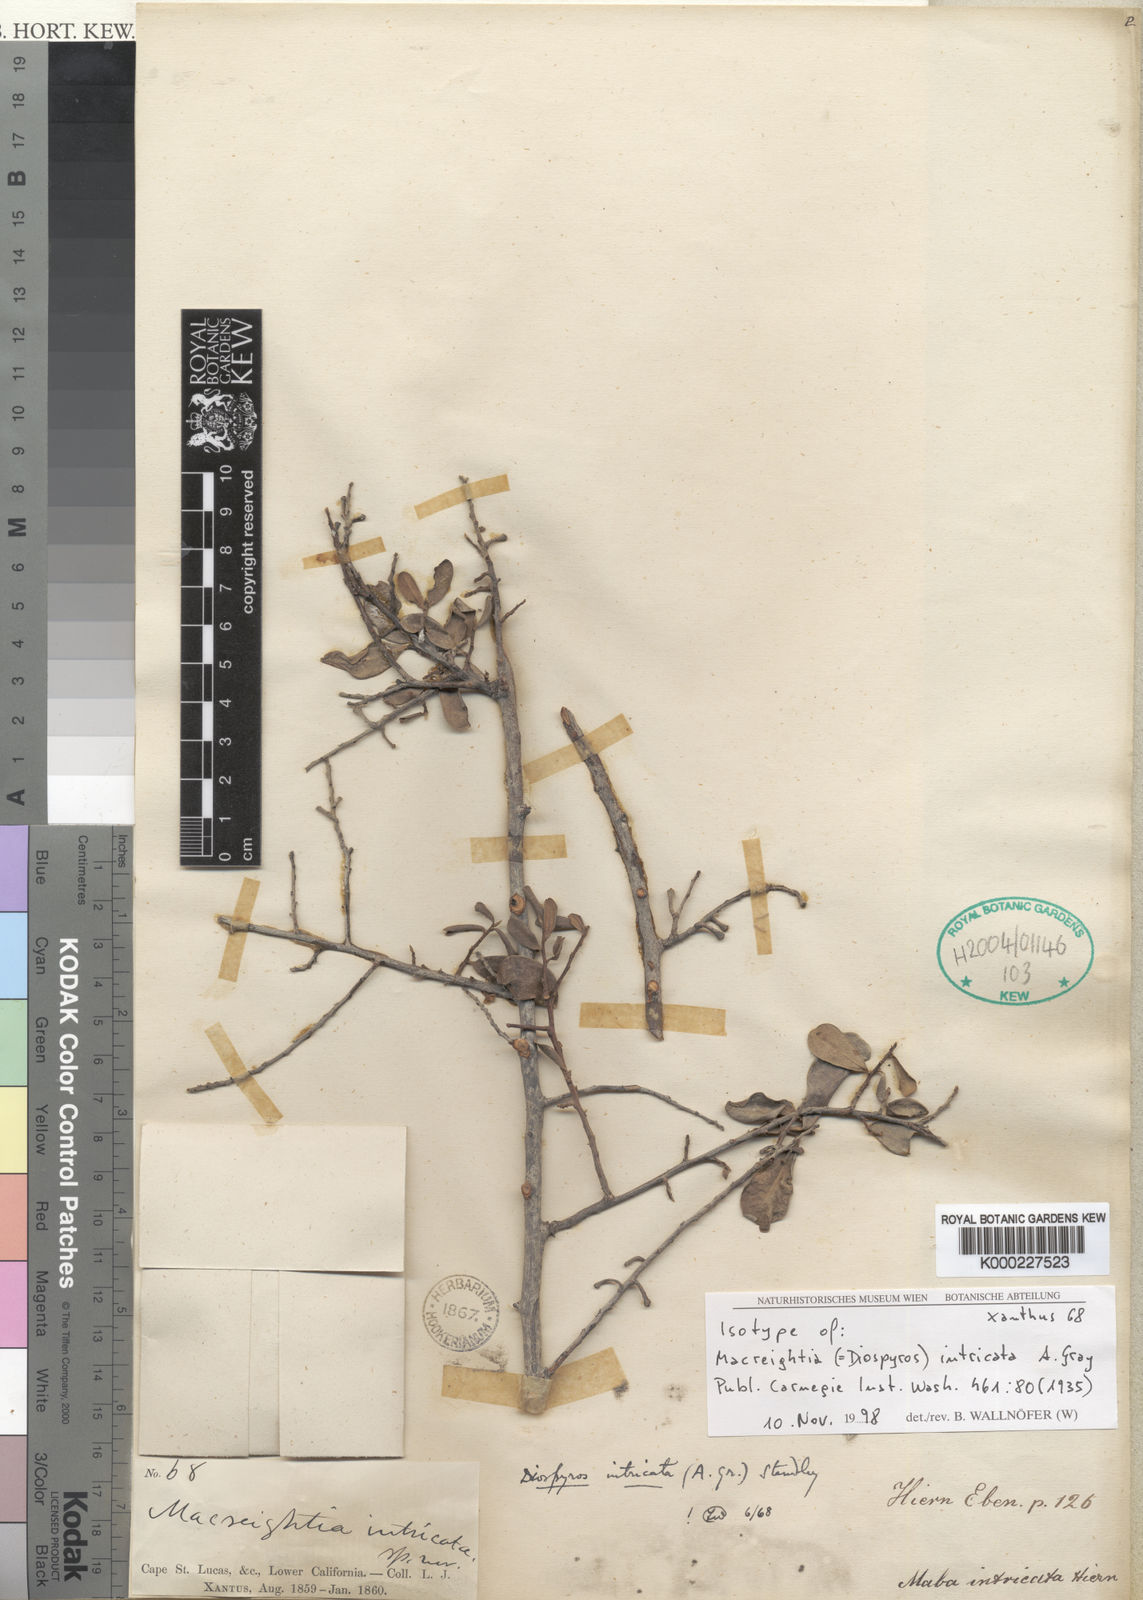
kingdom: Plantae
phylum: Tracheophyta
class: Magnoliopsida
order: Ericales
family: Ebenaceae
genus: Diospyros
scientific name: Diospyros intricata
